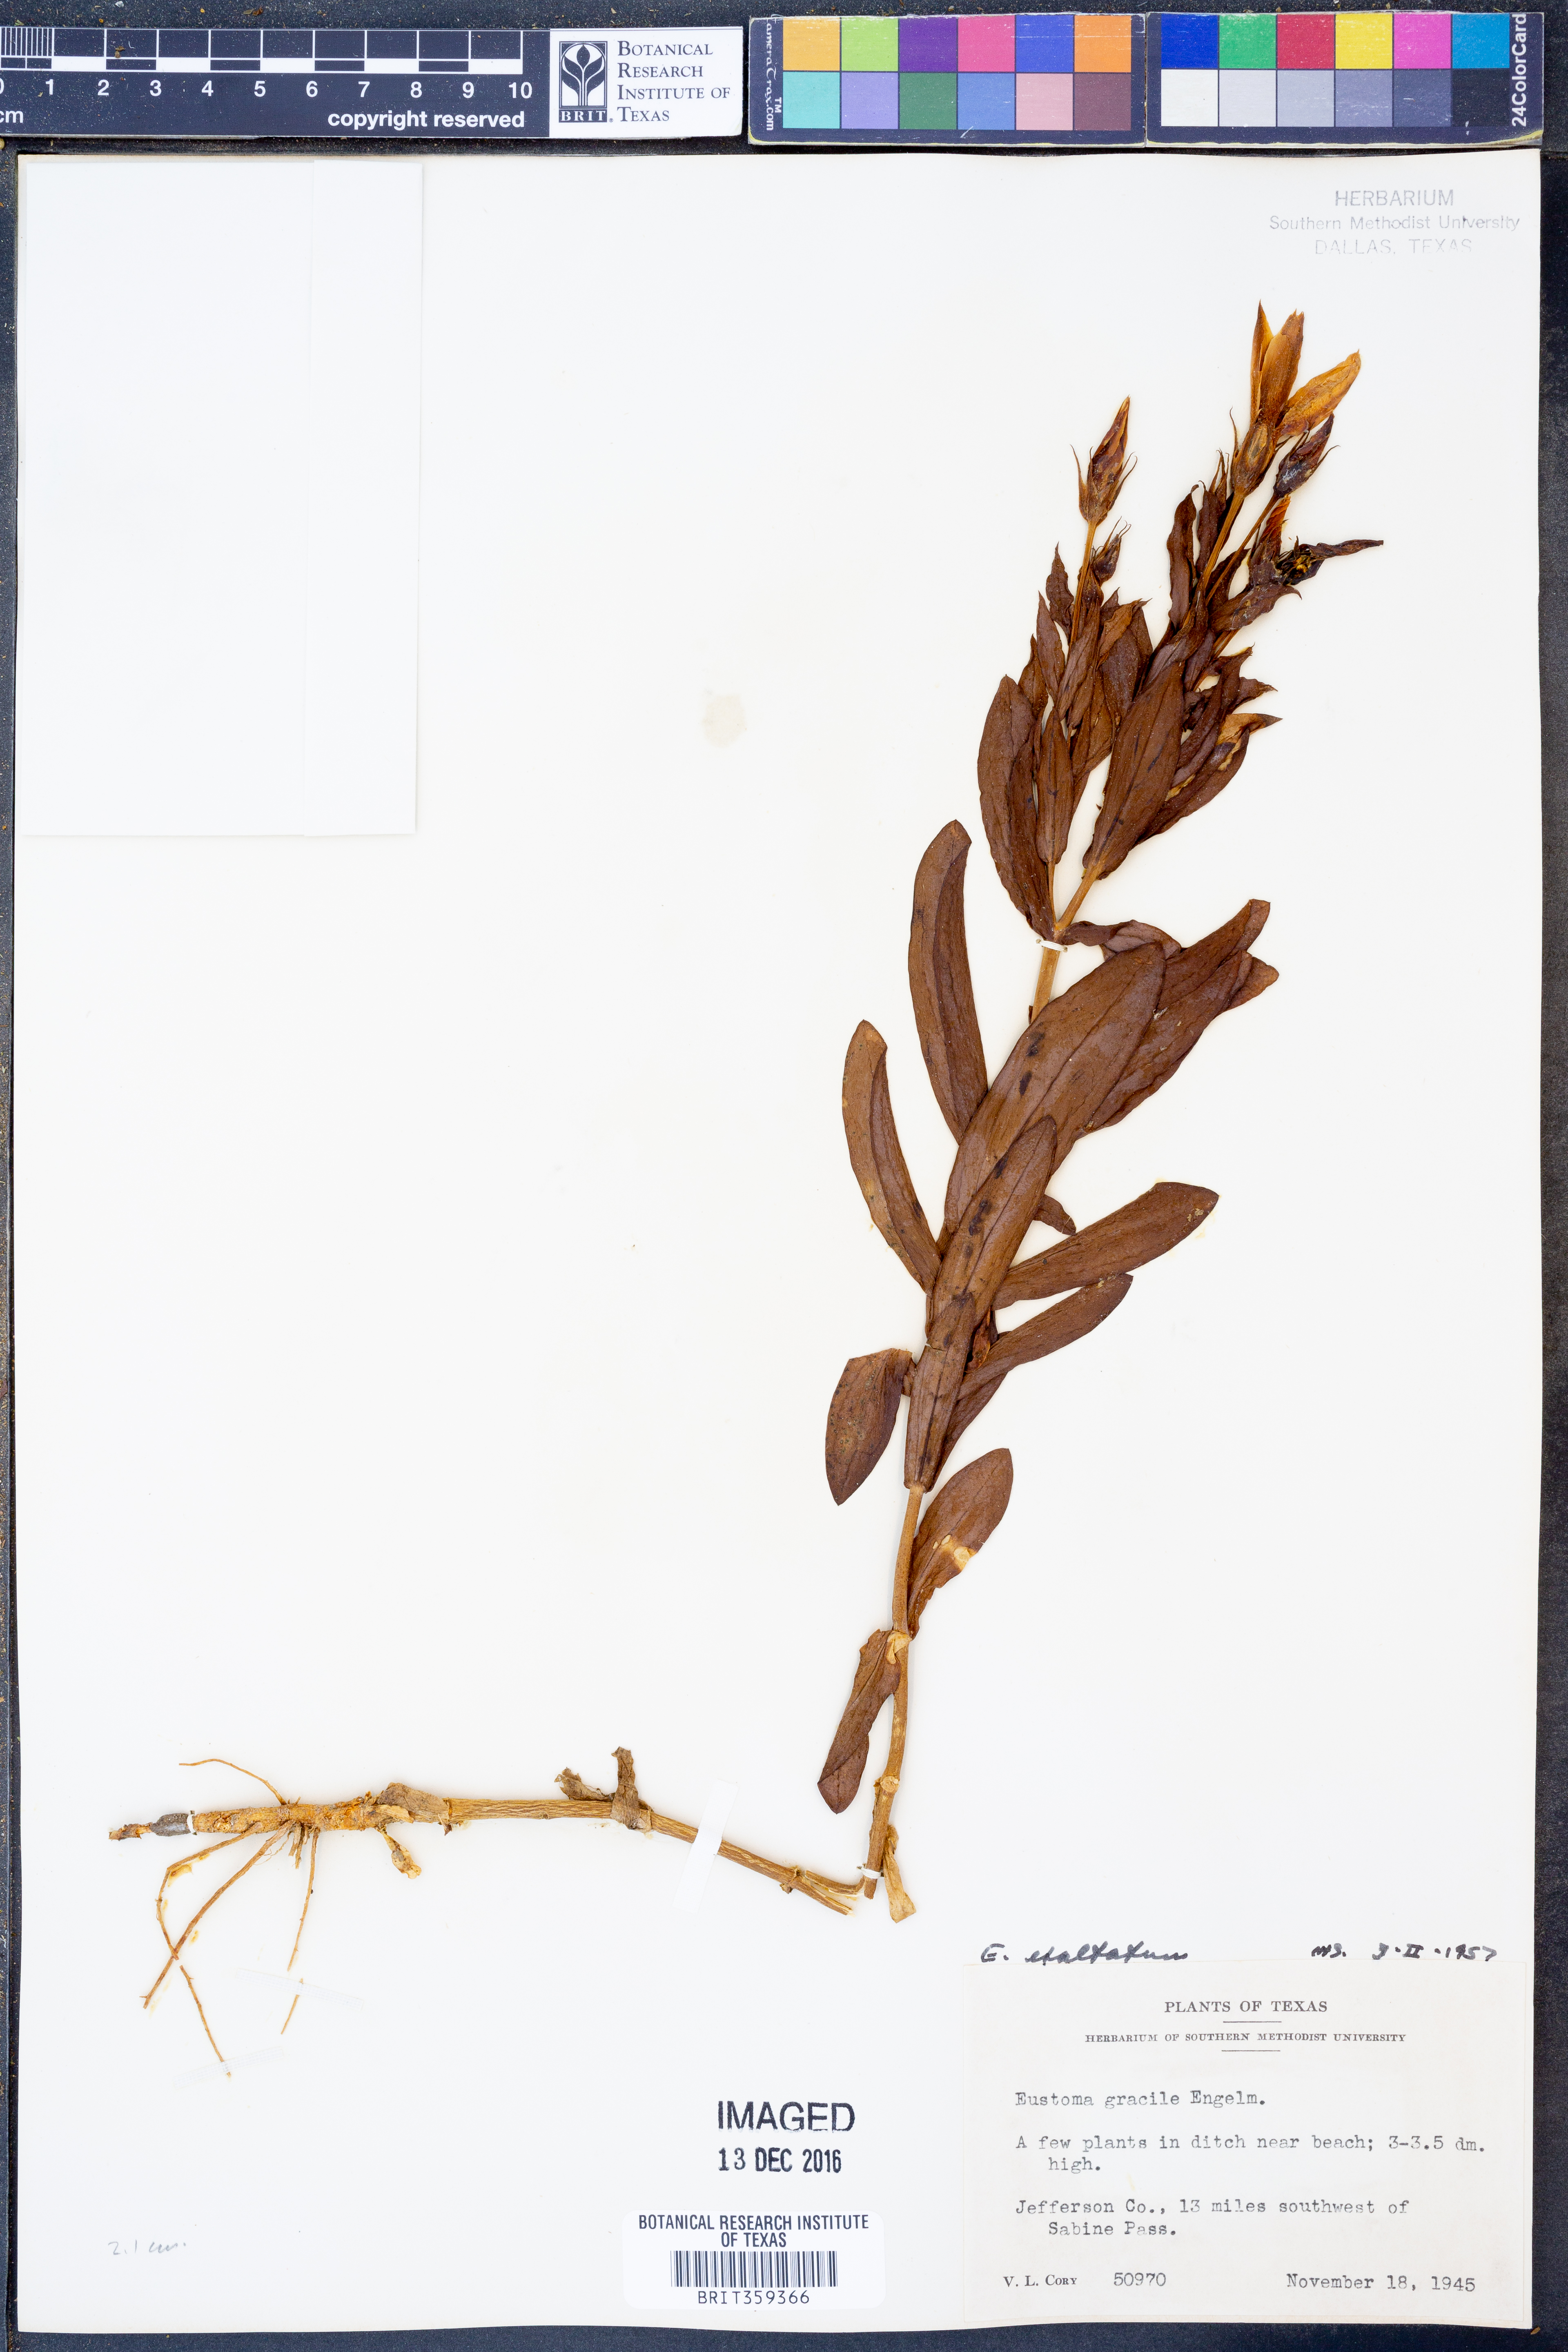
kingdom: Plantae
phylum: Tracheophyta
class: Magnoliopsida
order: Gentianales
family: Gentianaceae
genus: Eustoma
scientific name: Eustoma exaltatum
